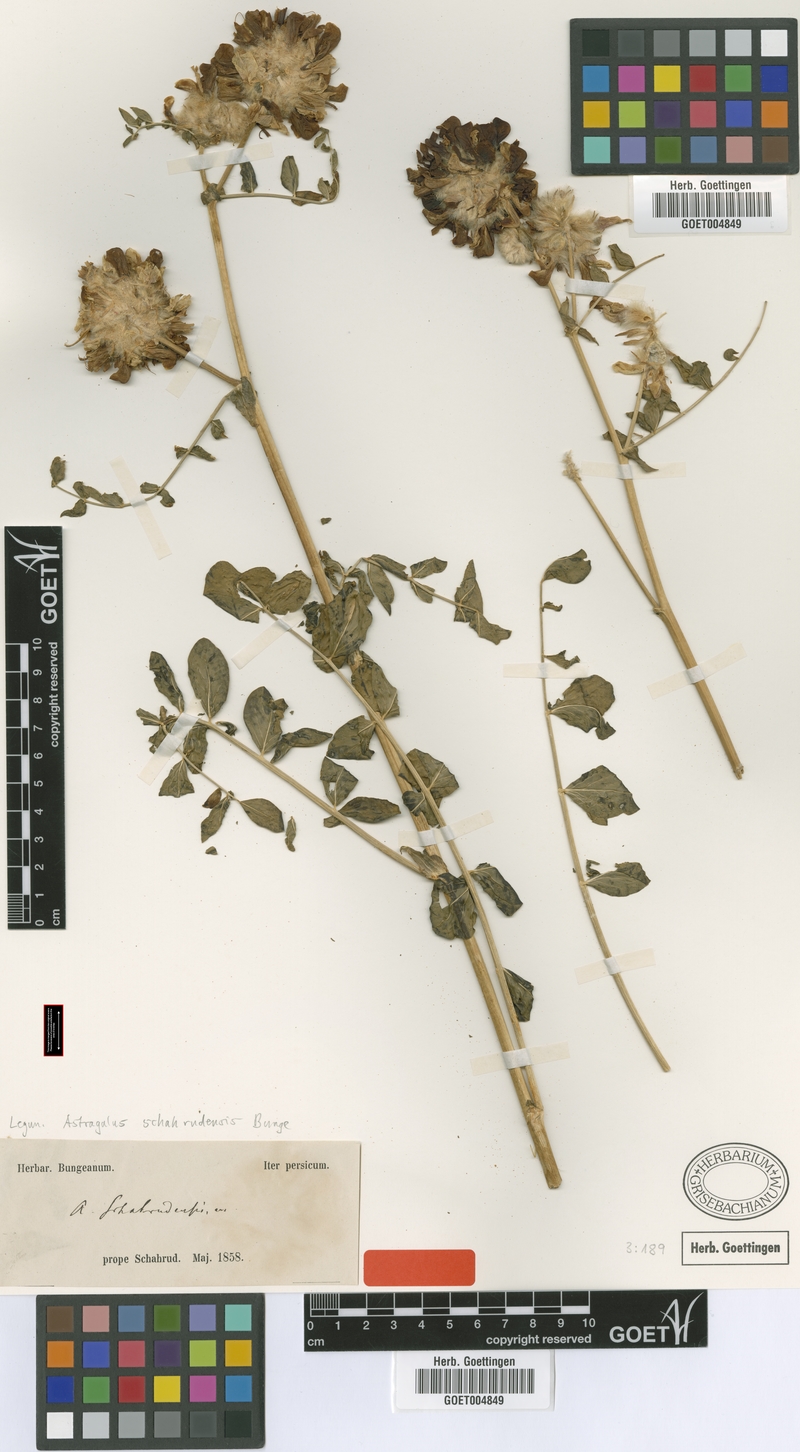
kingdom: Plantae
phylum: Tracheophyta
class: Magnoliopsida
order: Fabales
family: Fabaceae
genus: Astragalus
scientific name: Astragalus schahrudensis
